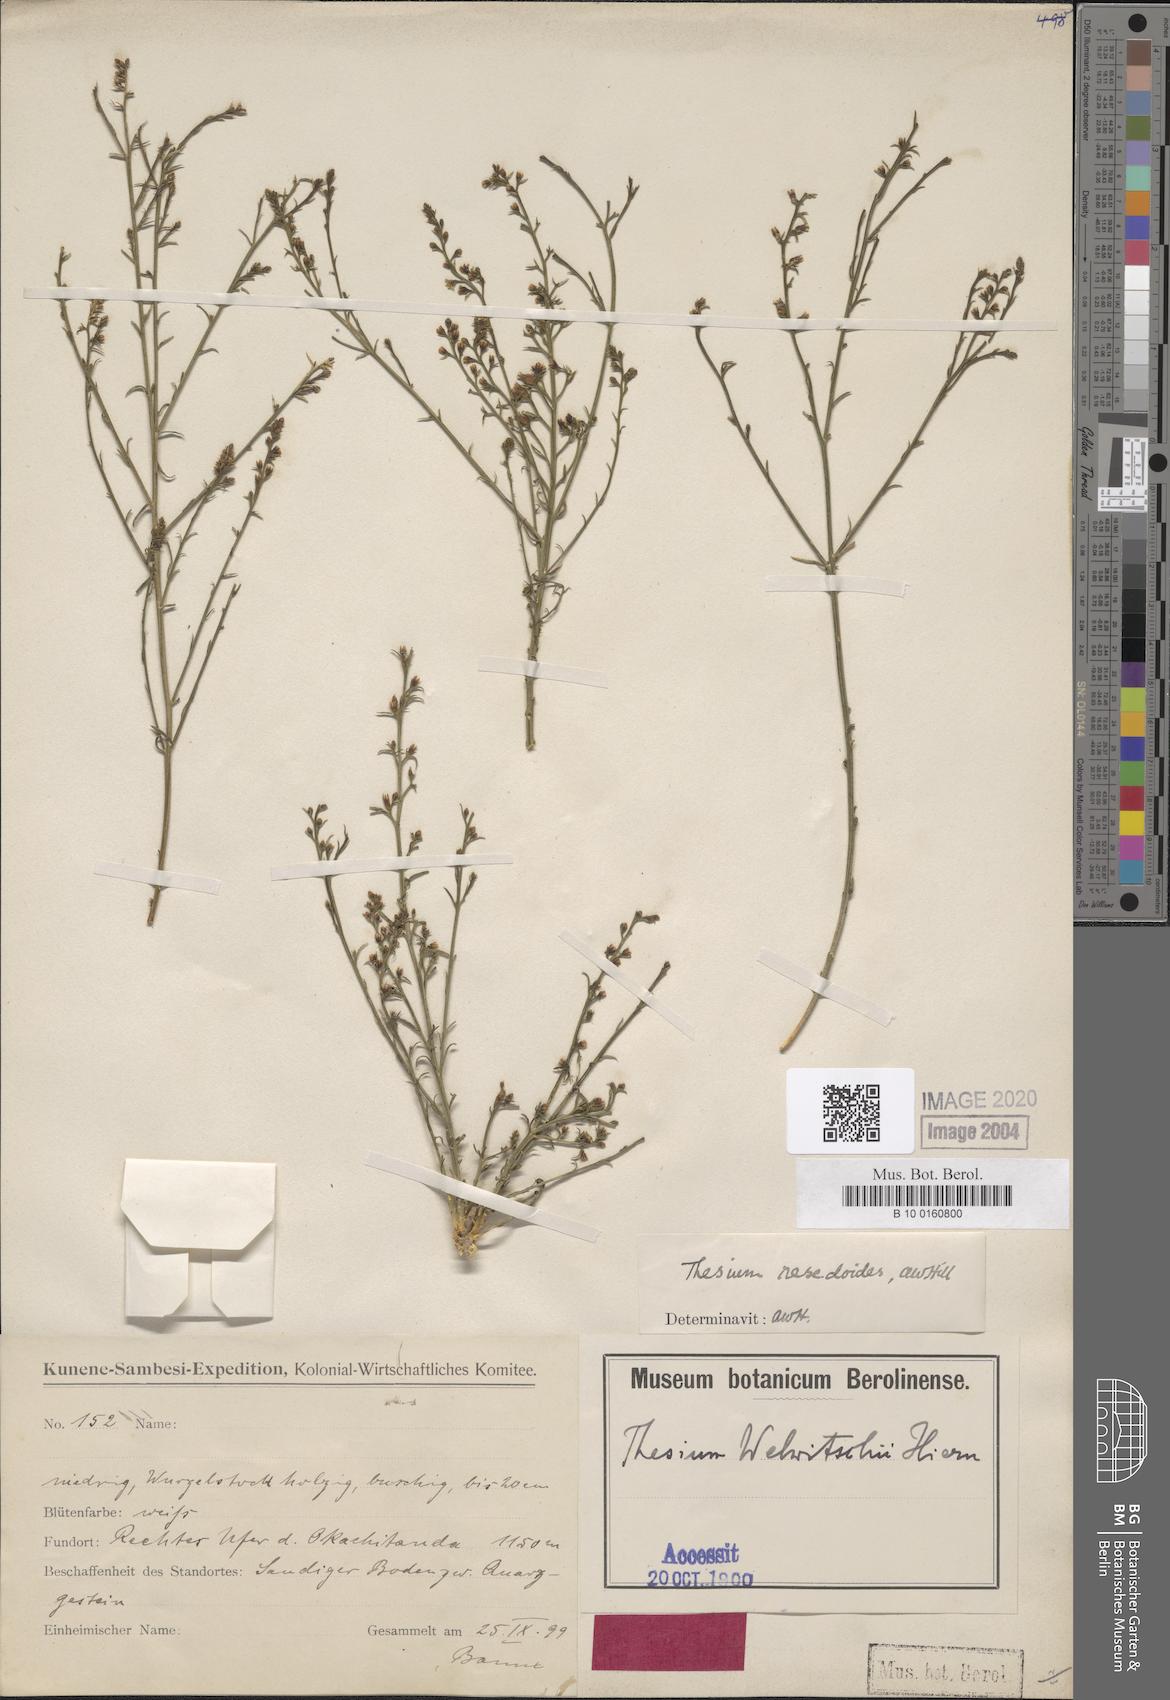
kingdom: Plantae
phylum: Tracheophyta
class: Magnoliopsida
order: Santalales
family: Thesiaceae
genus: Thesium
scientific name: Thesium resedoides
